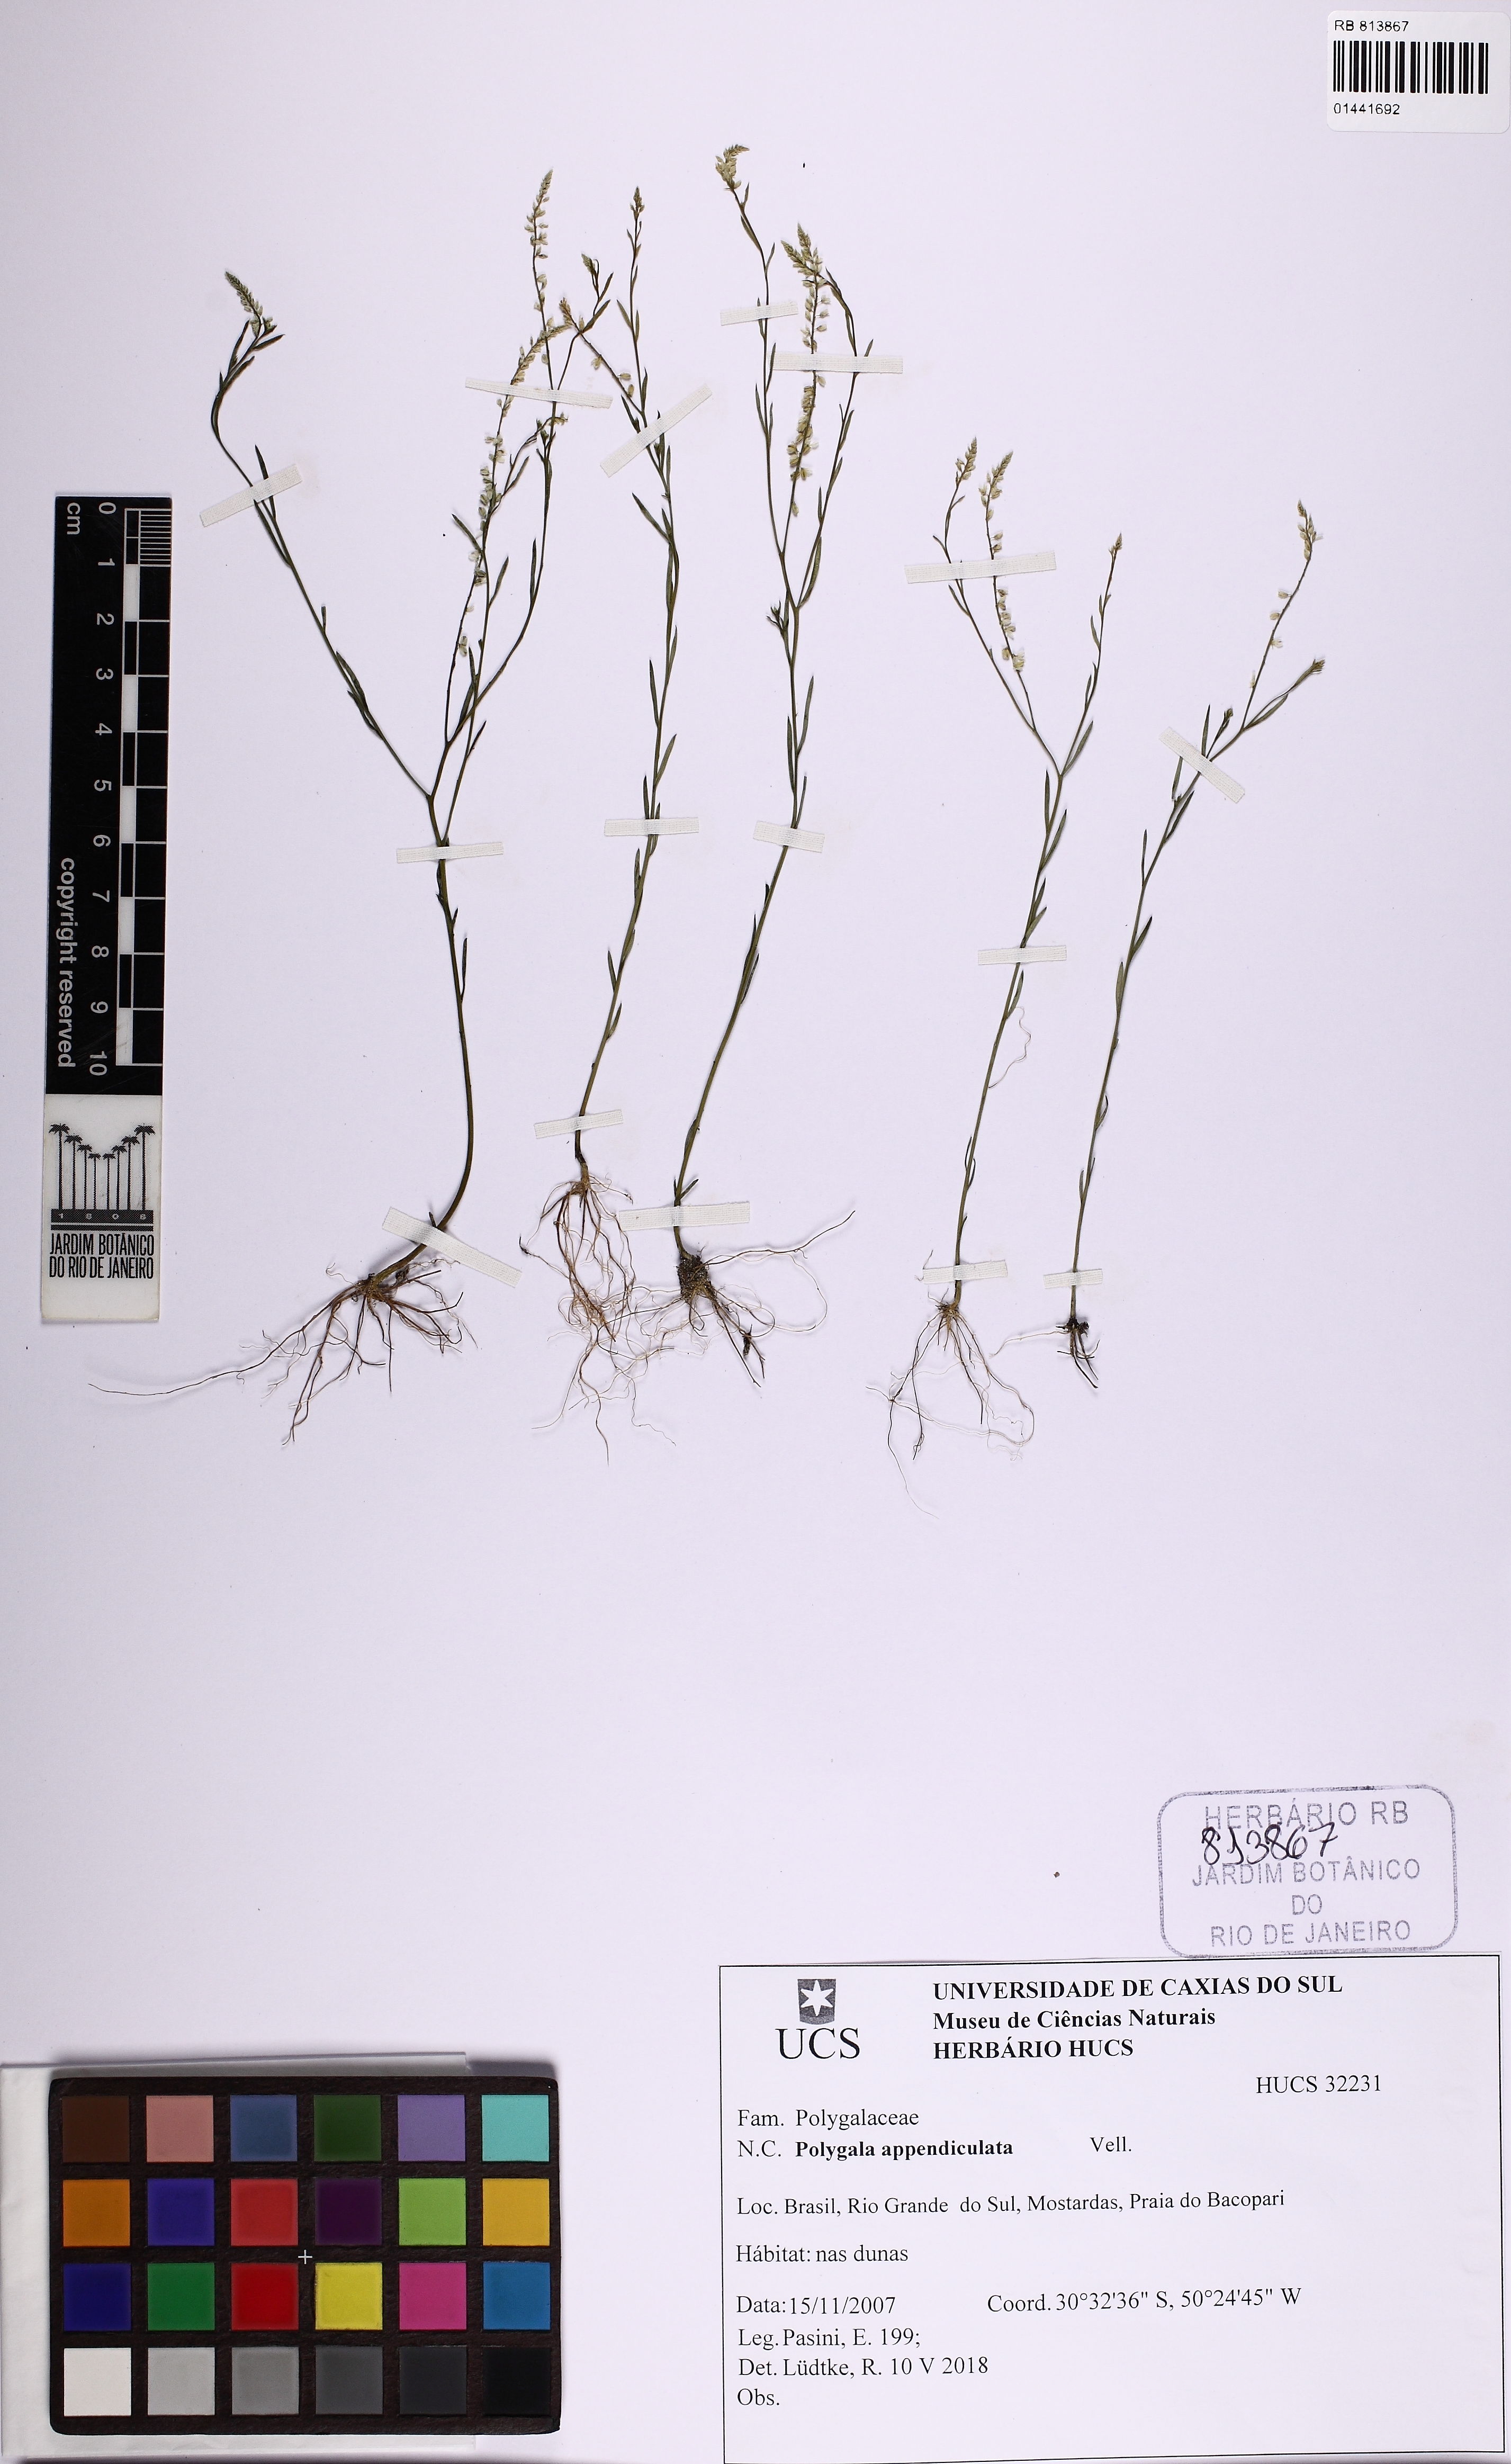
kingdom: Plantae
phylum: Tracheophyta
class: Magnoliopsida
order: Fabales
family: Polygalaceae
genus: Polygala
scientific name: Polygala tenella
